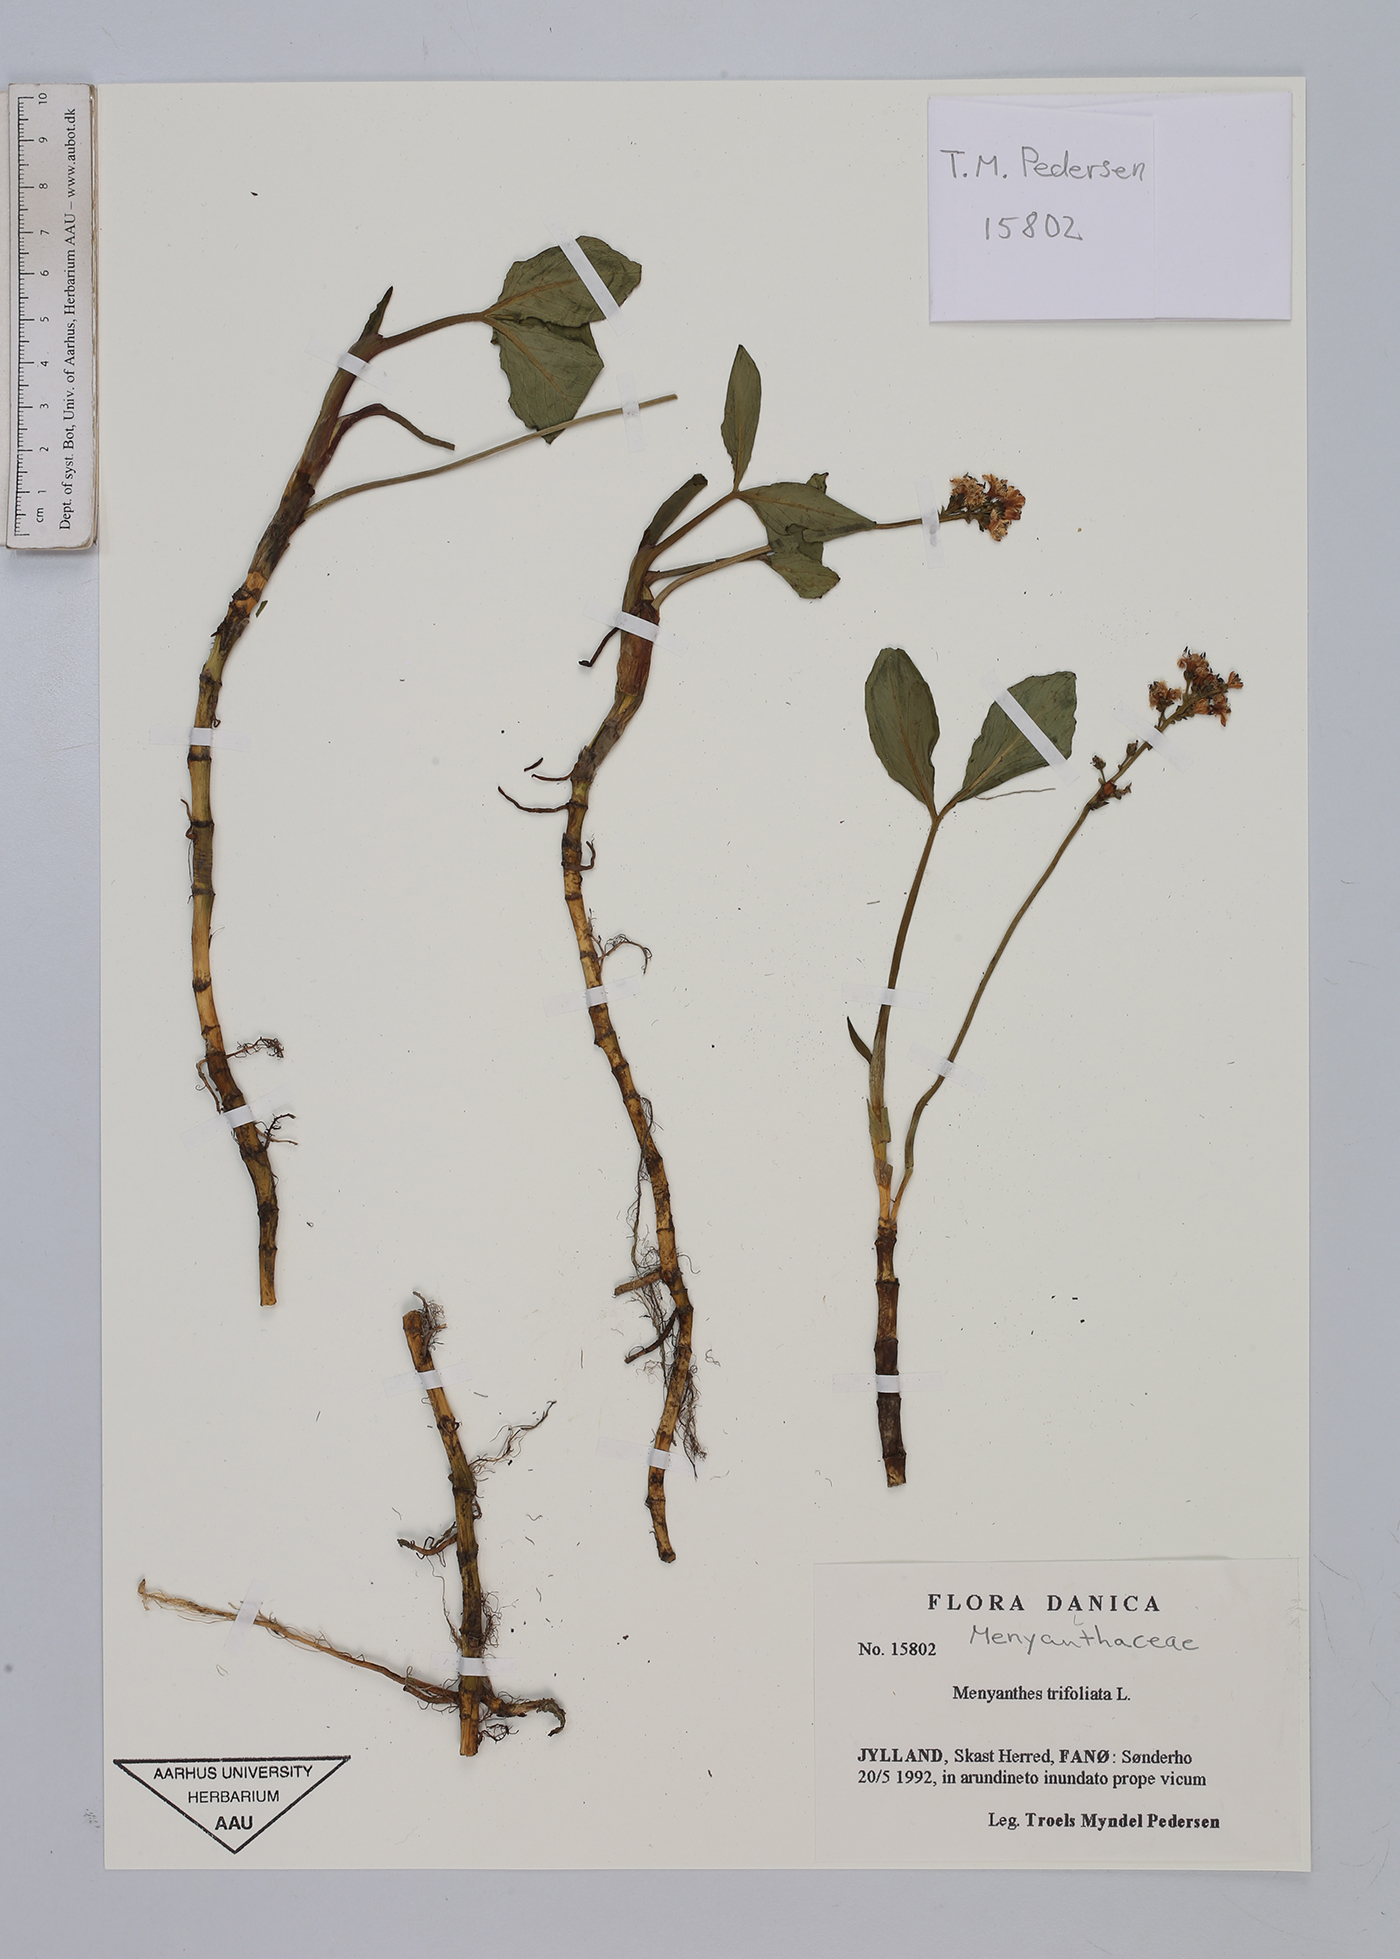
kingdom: Plantae
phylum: Tracheophyta
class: Magnoliopsida
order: Asterales
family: Menyanthaceae
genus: Menyanthes
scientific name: Menyanthes trifoliata
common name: Bogbean
